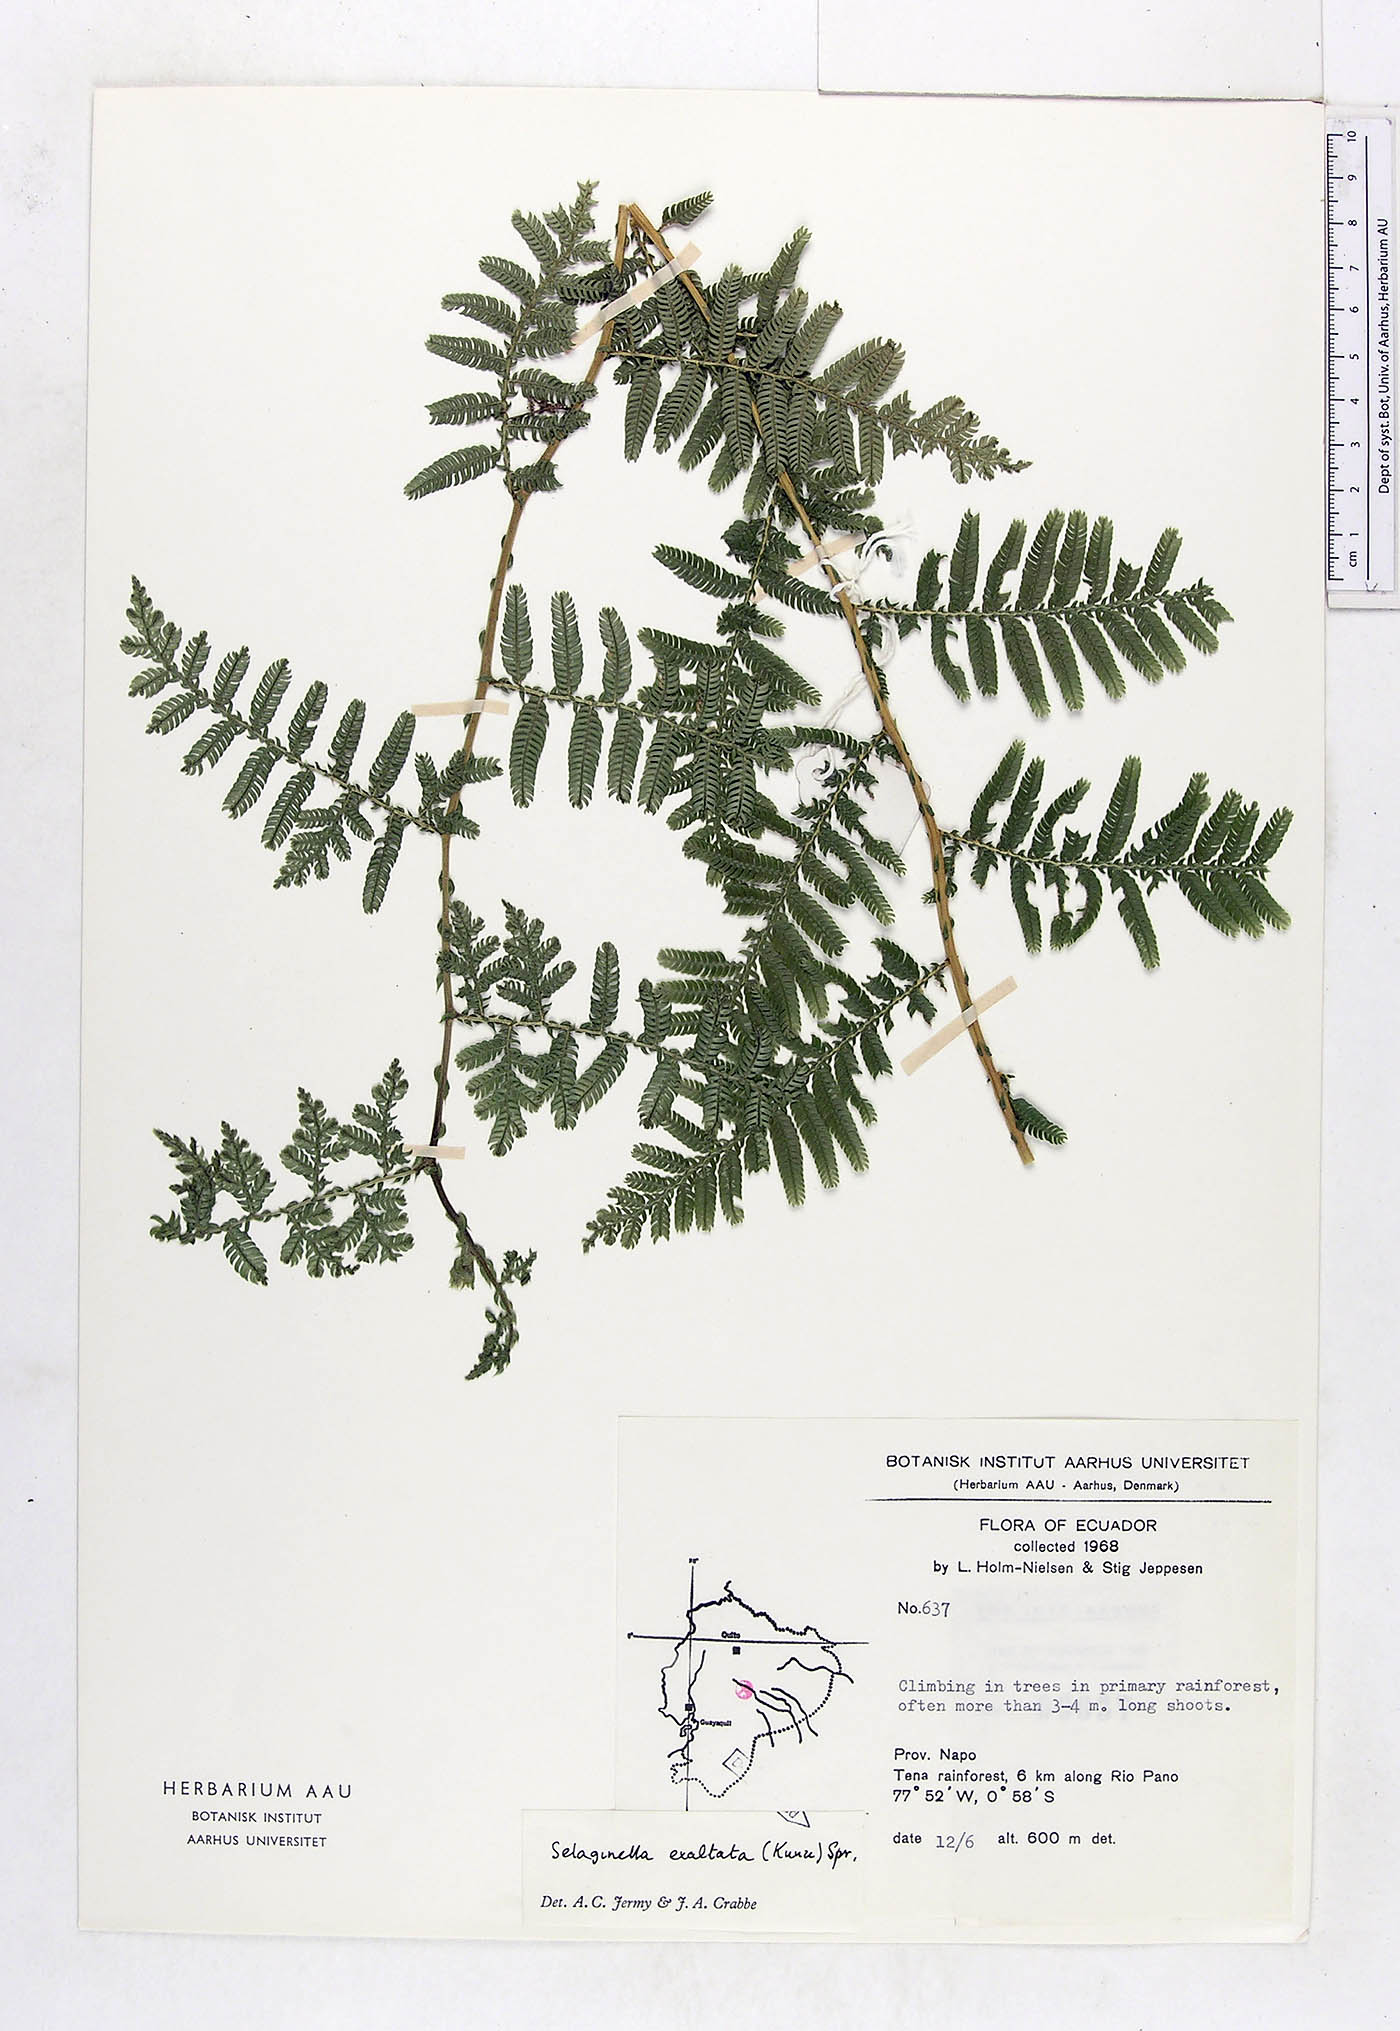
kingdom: Plantae
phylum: Tracheophyta
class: Lycopodiopsida
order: Selaginellales
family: Selaginellaceae
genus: Selaginella
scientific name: Selaginella exaltata
